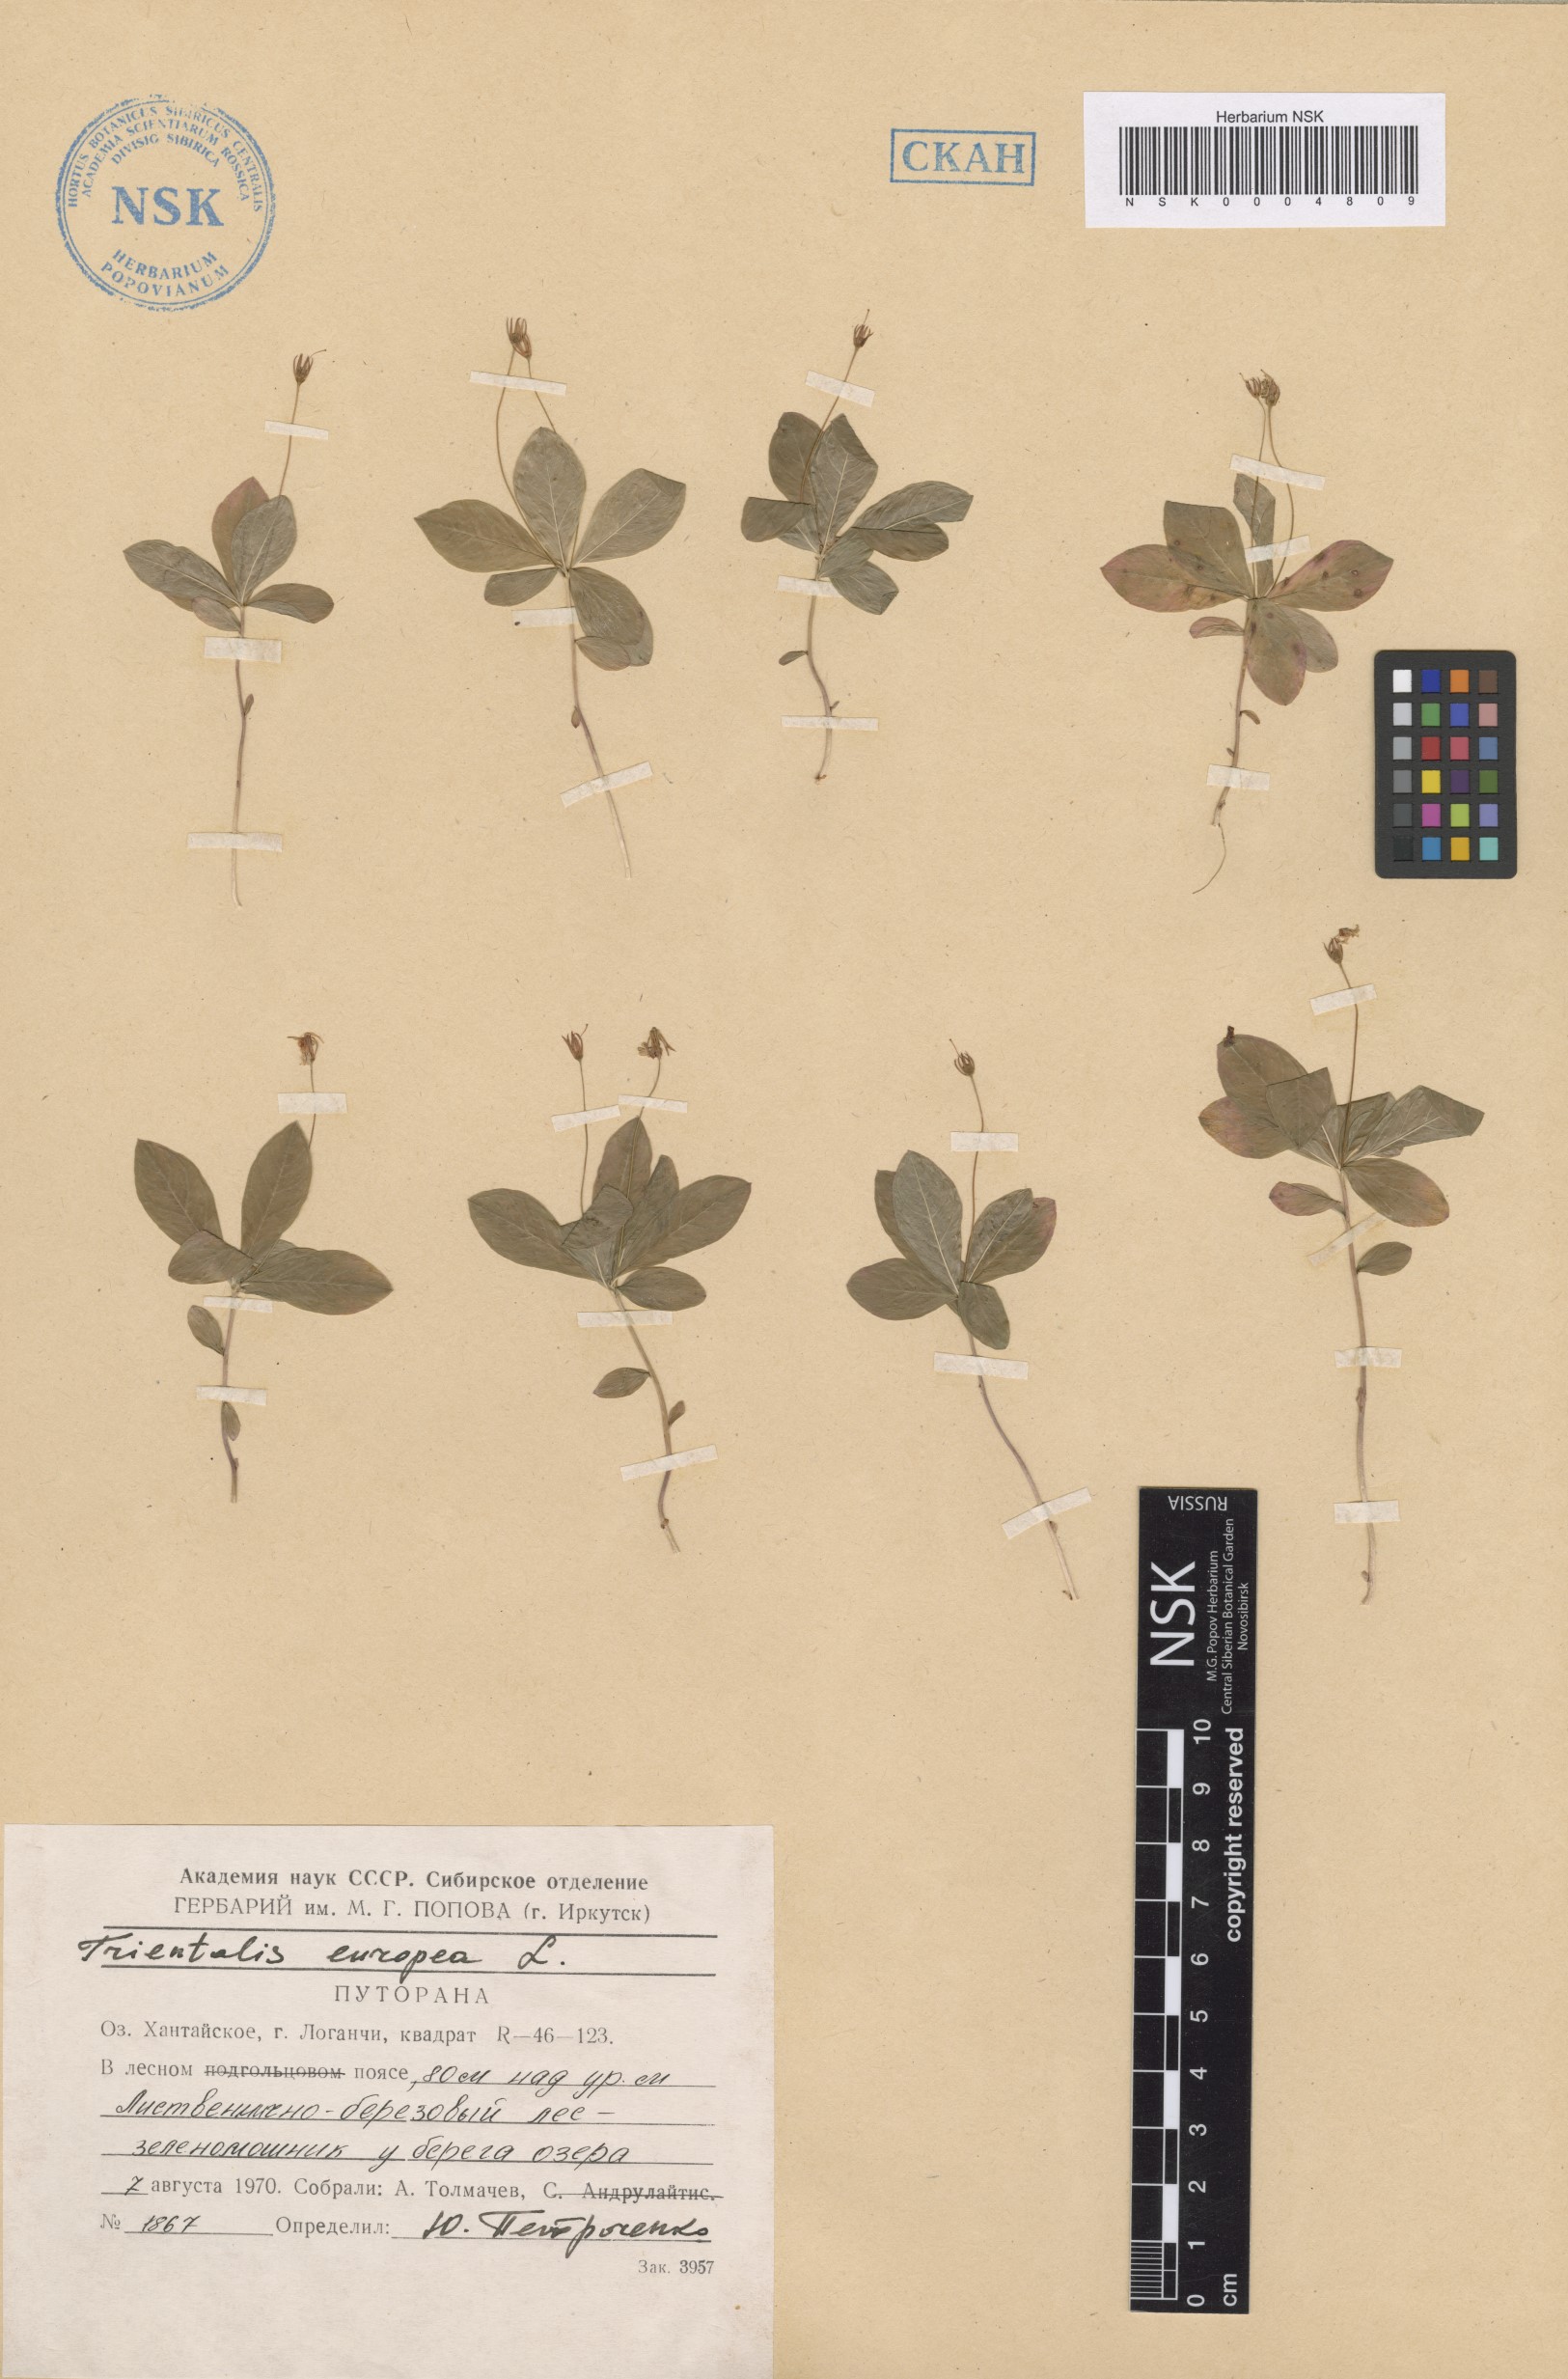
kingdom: Plantae
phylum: Tracheophyta
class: Magnoliopsida
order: Ericales
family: Primulaceae
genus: Lysimachia
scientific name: Lysimachia europaea
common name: Arctic starflower
